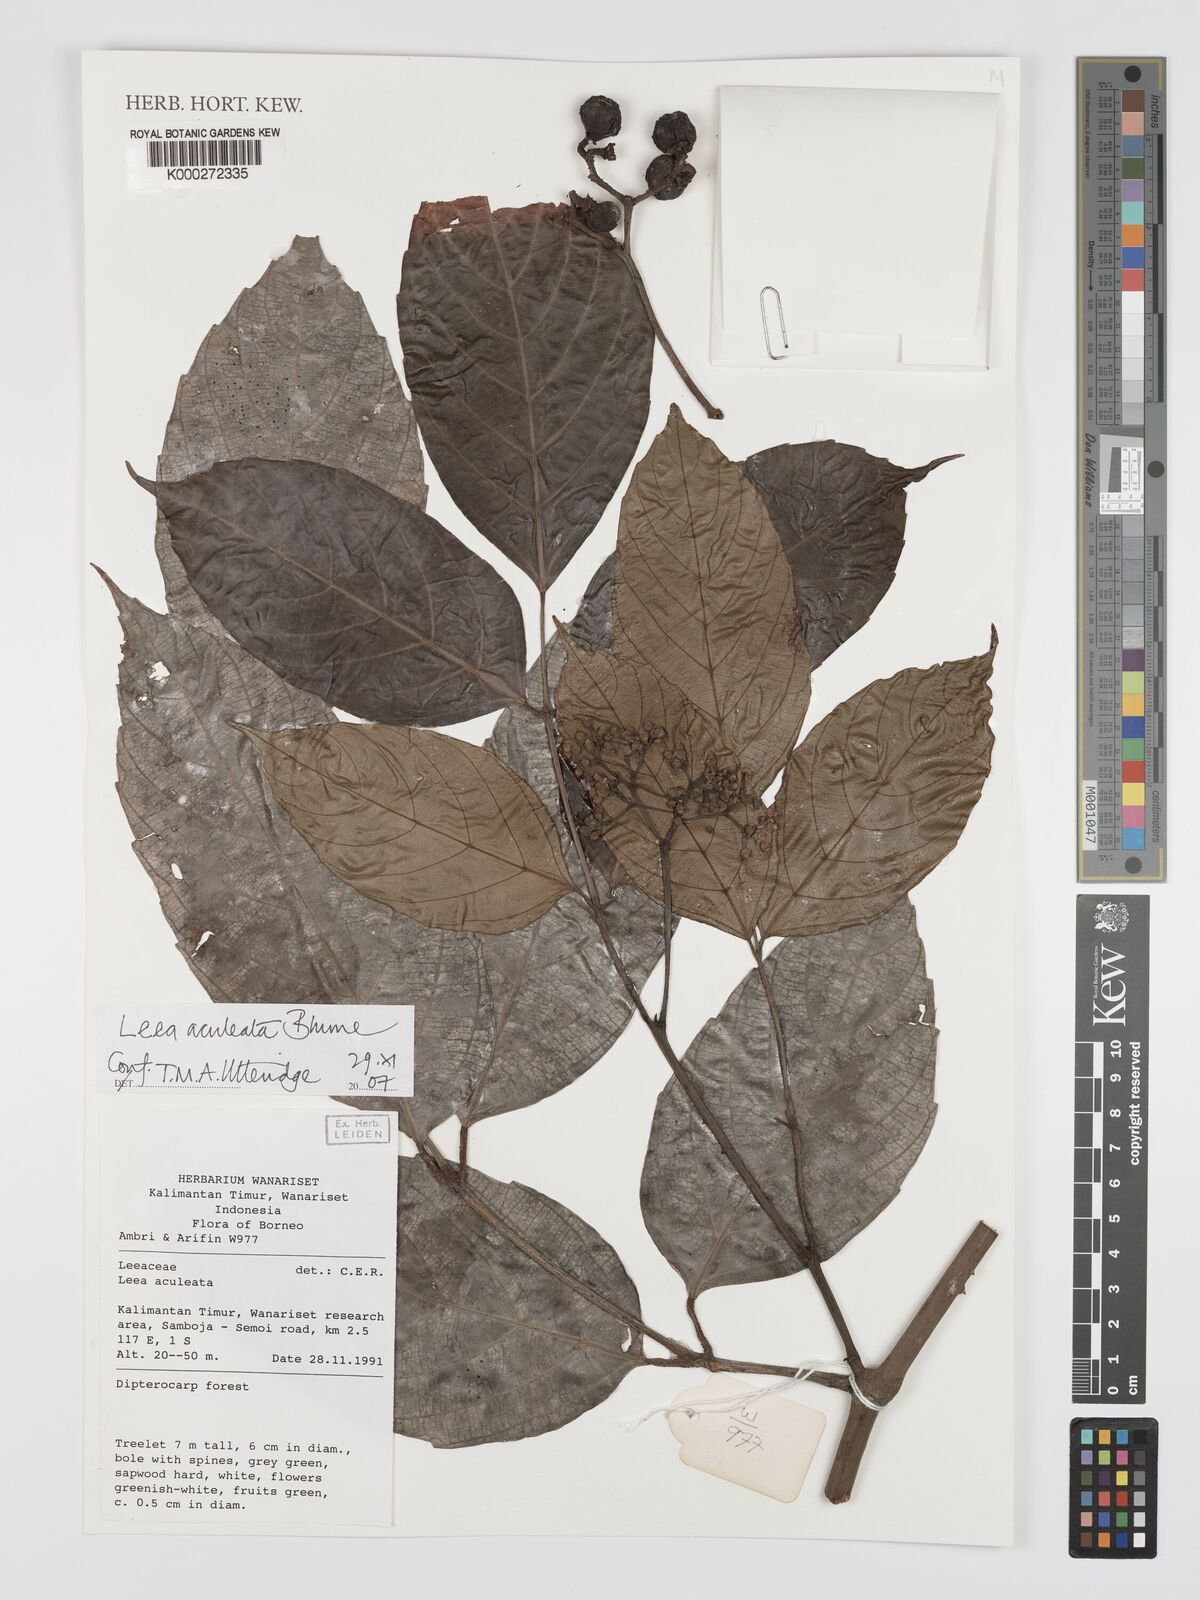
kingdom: Plantae
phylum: Tracheophyta
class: Magnoliopsida
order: Vitales
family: Vitaceae
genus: Leea
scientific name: Leea aculeata
